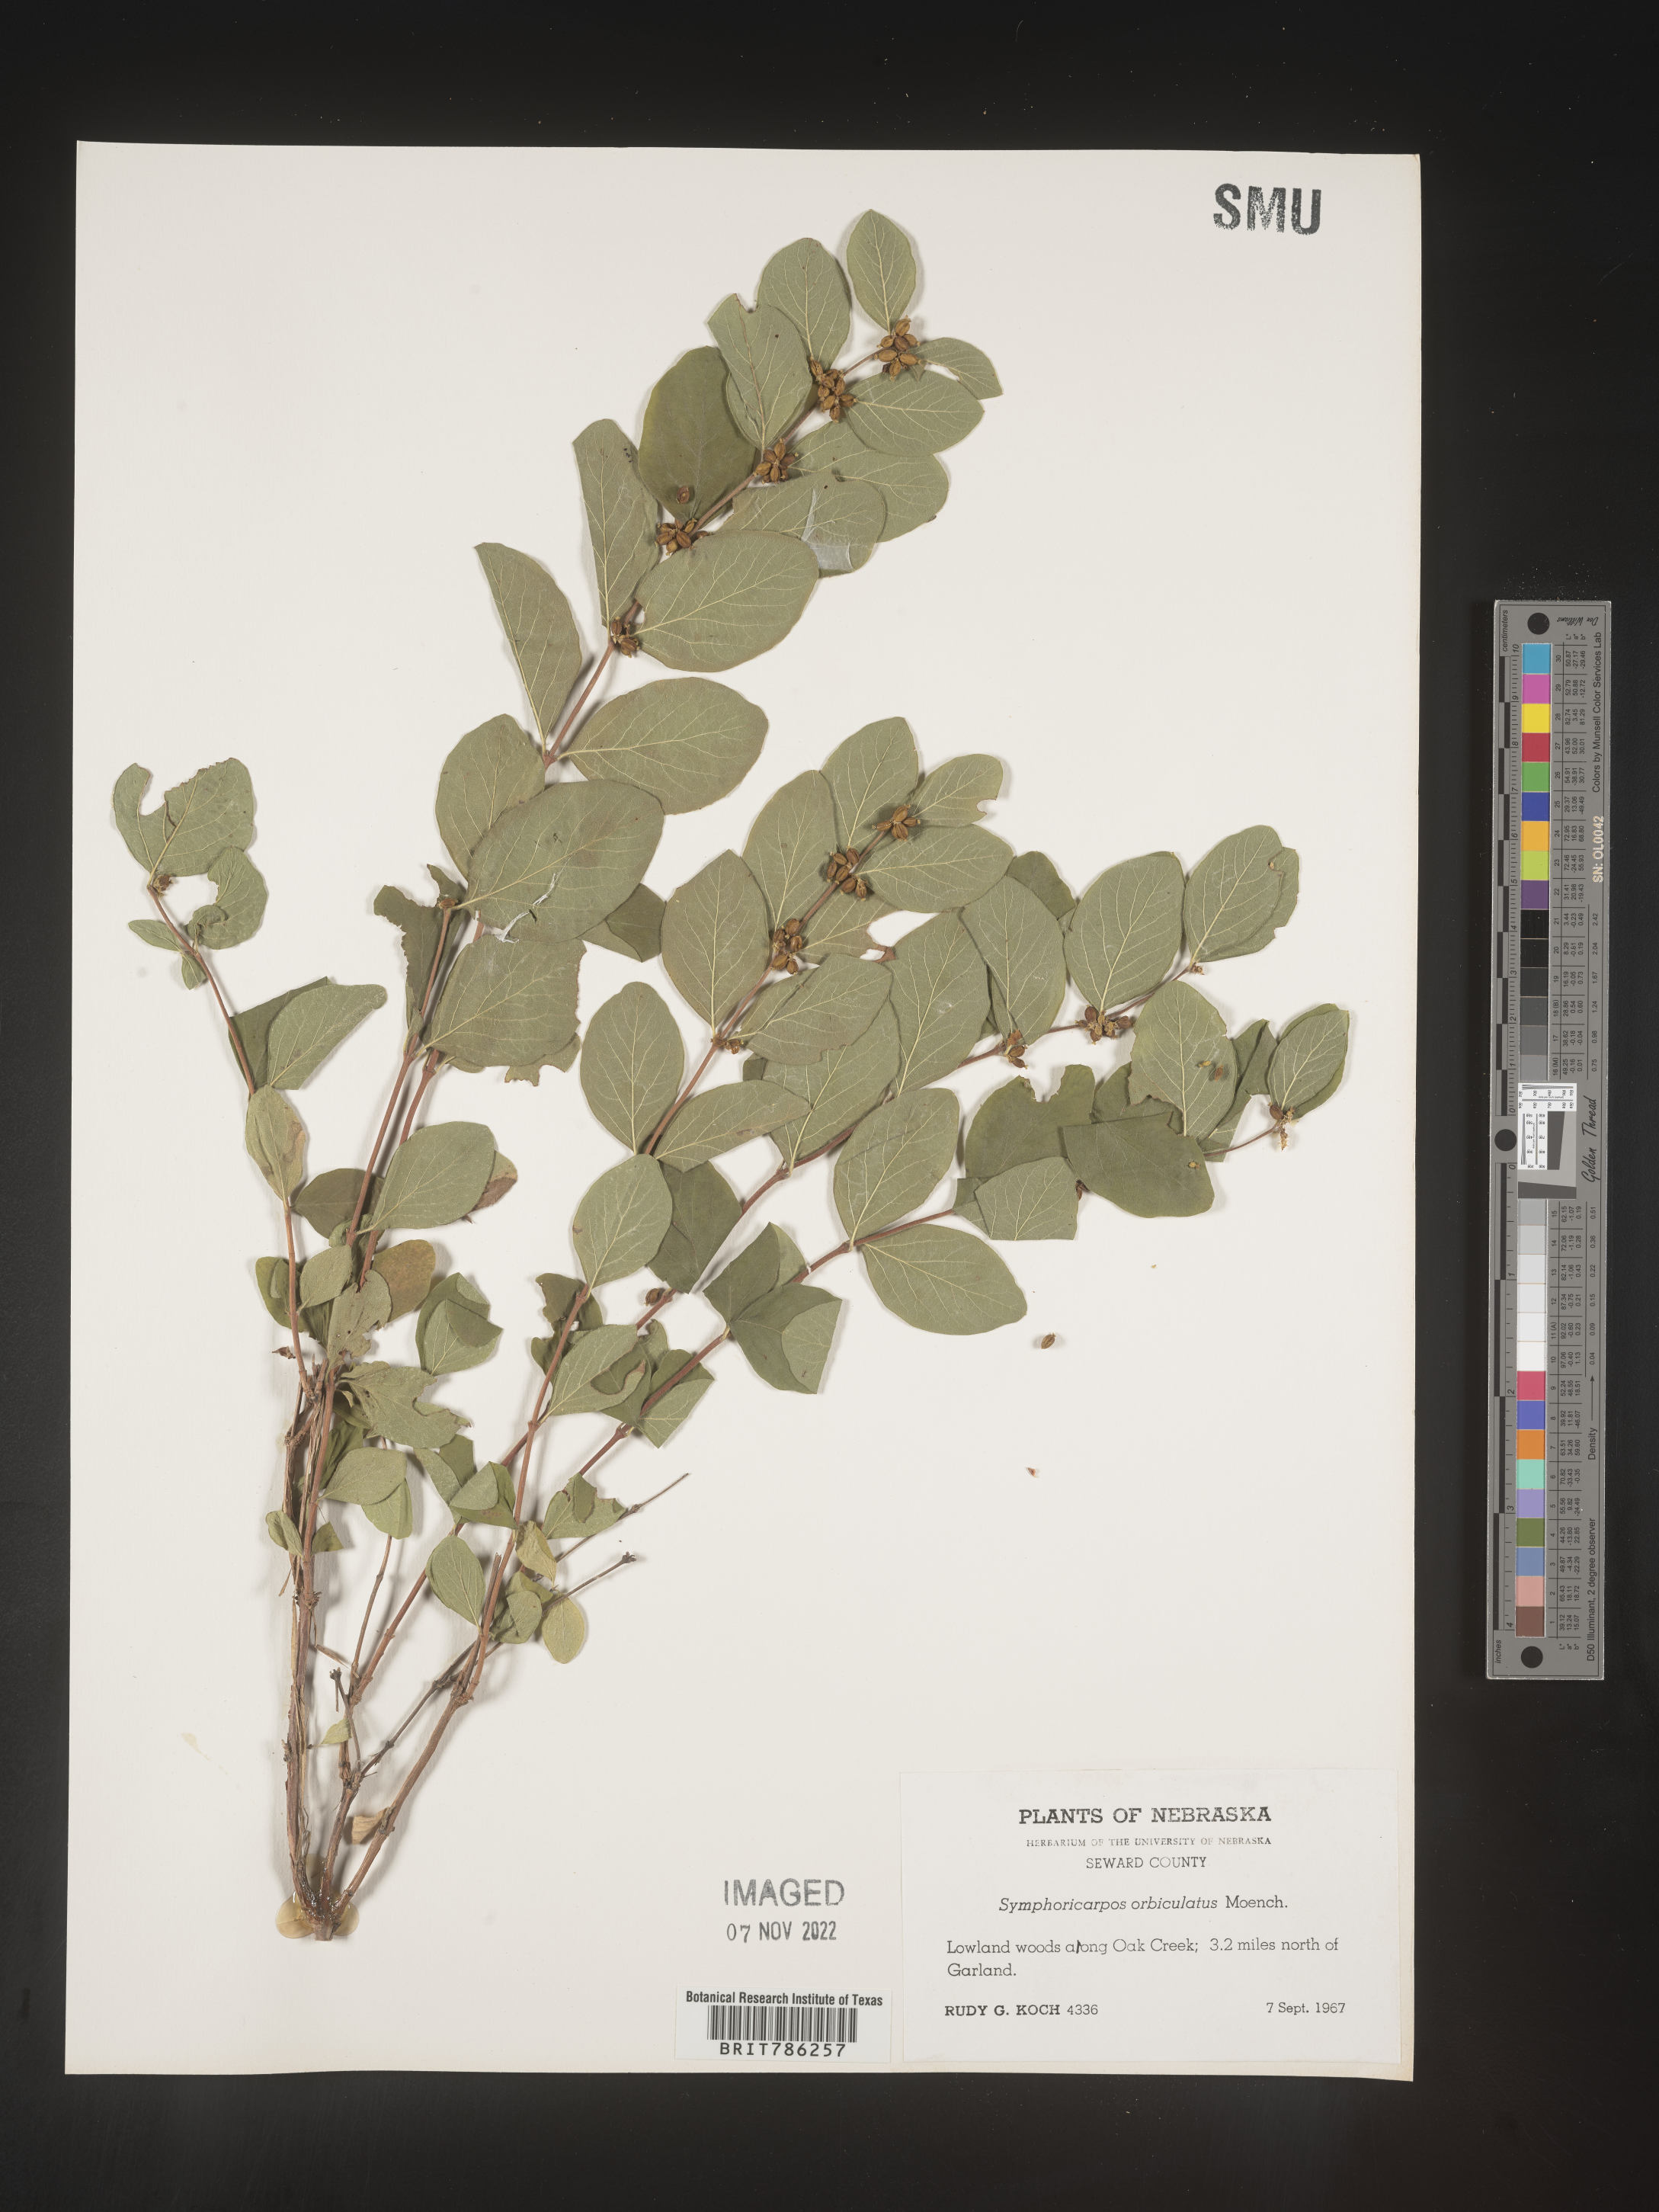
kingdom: Plantae
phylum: Tracheophyta
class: Magnoliopsida
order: Dipsacales
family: Caprifoliaceae
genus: Symphoricarpos
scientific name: Symphoricarpos orbiculatus
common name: Coralberry
